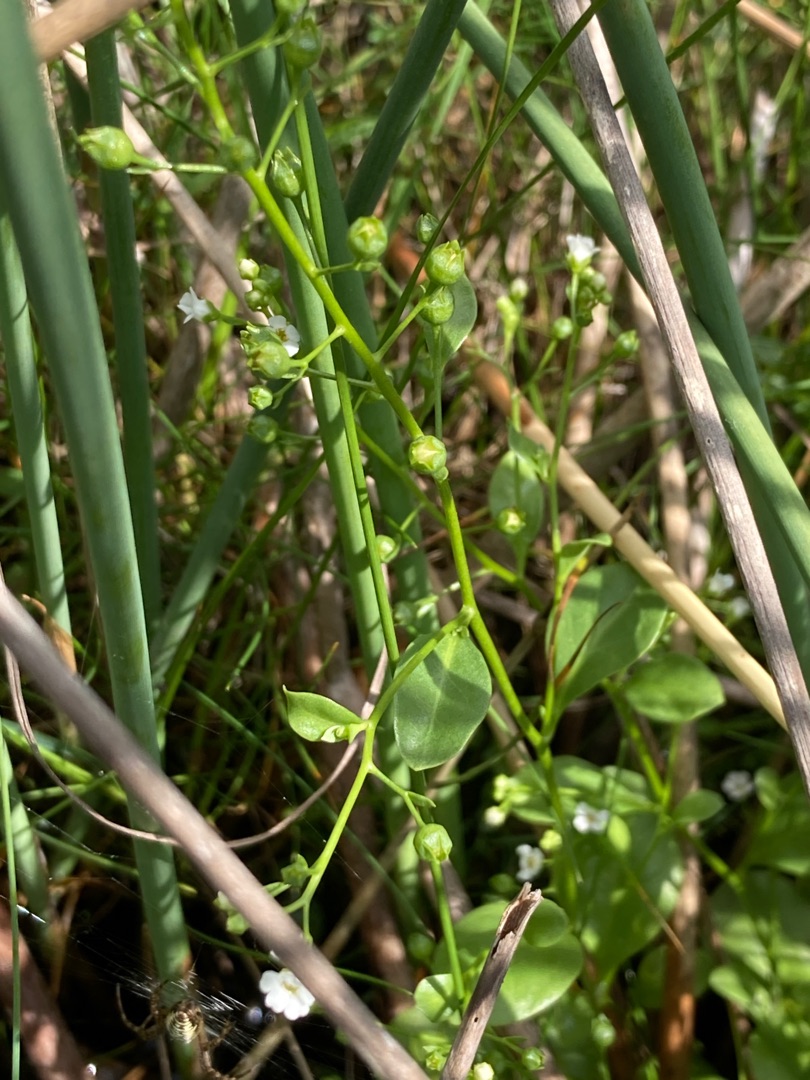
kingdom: Plantae
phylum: Tracheophyta
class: Magnoliopsida
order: Ericales
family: Primulaceae
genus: Samolus
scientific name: Samolus valerandi
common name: Samel
